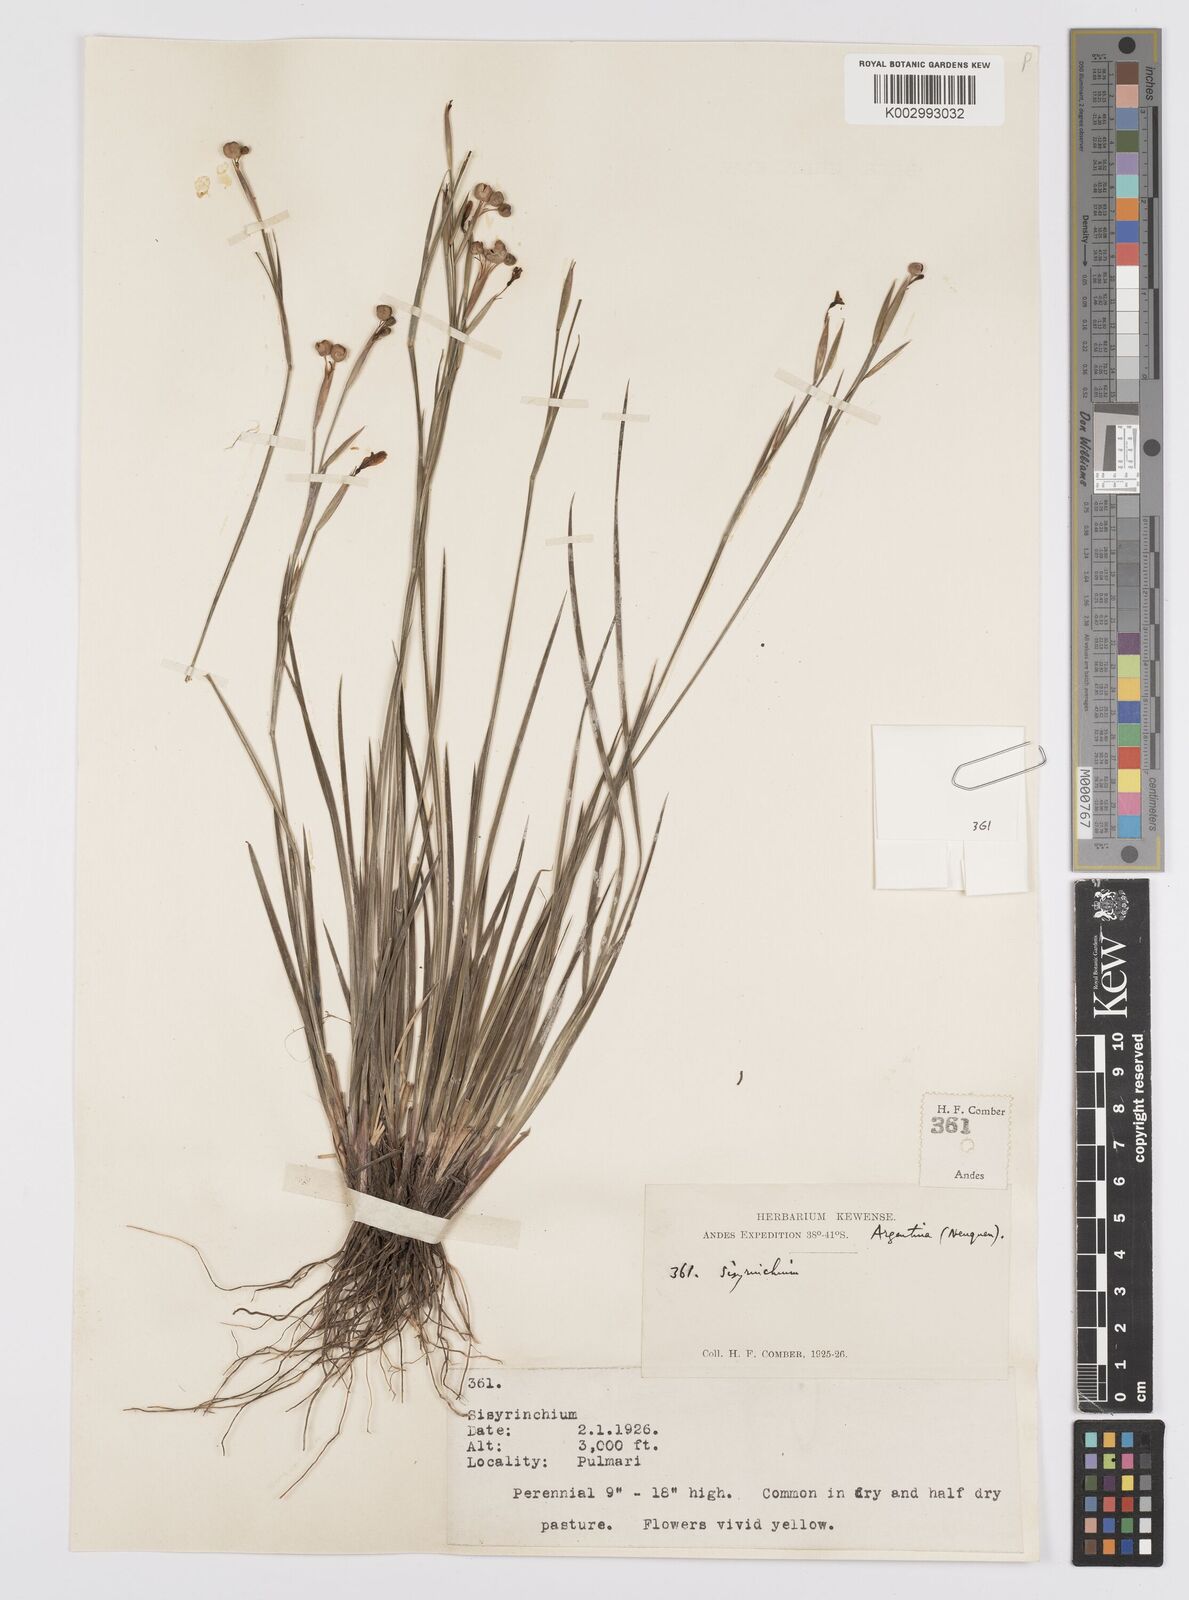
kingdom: Plantae
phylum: Tracheophyta
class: Liliopsida
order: Asparagales
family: Iridaceae
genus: Sisyrinchium
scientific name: Sisyrinchium
